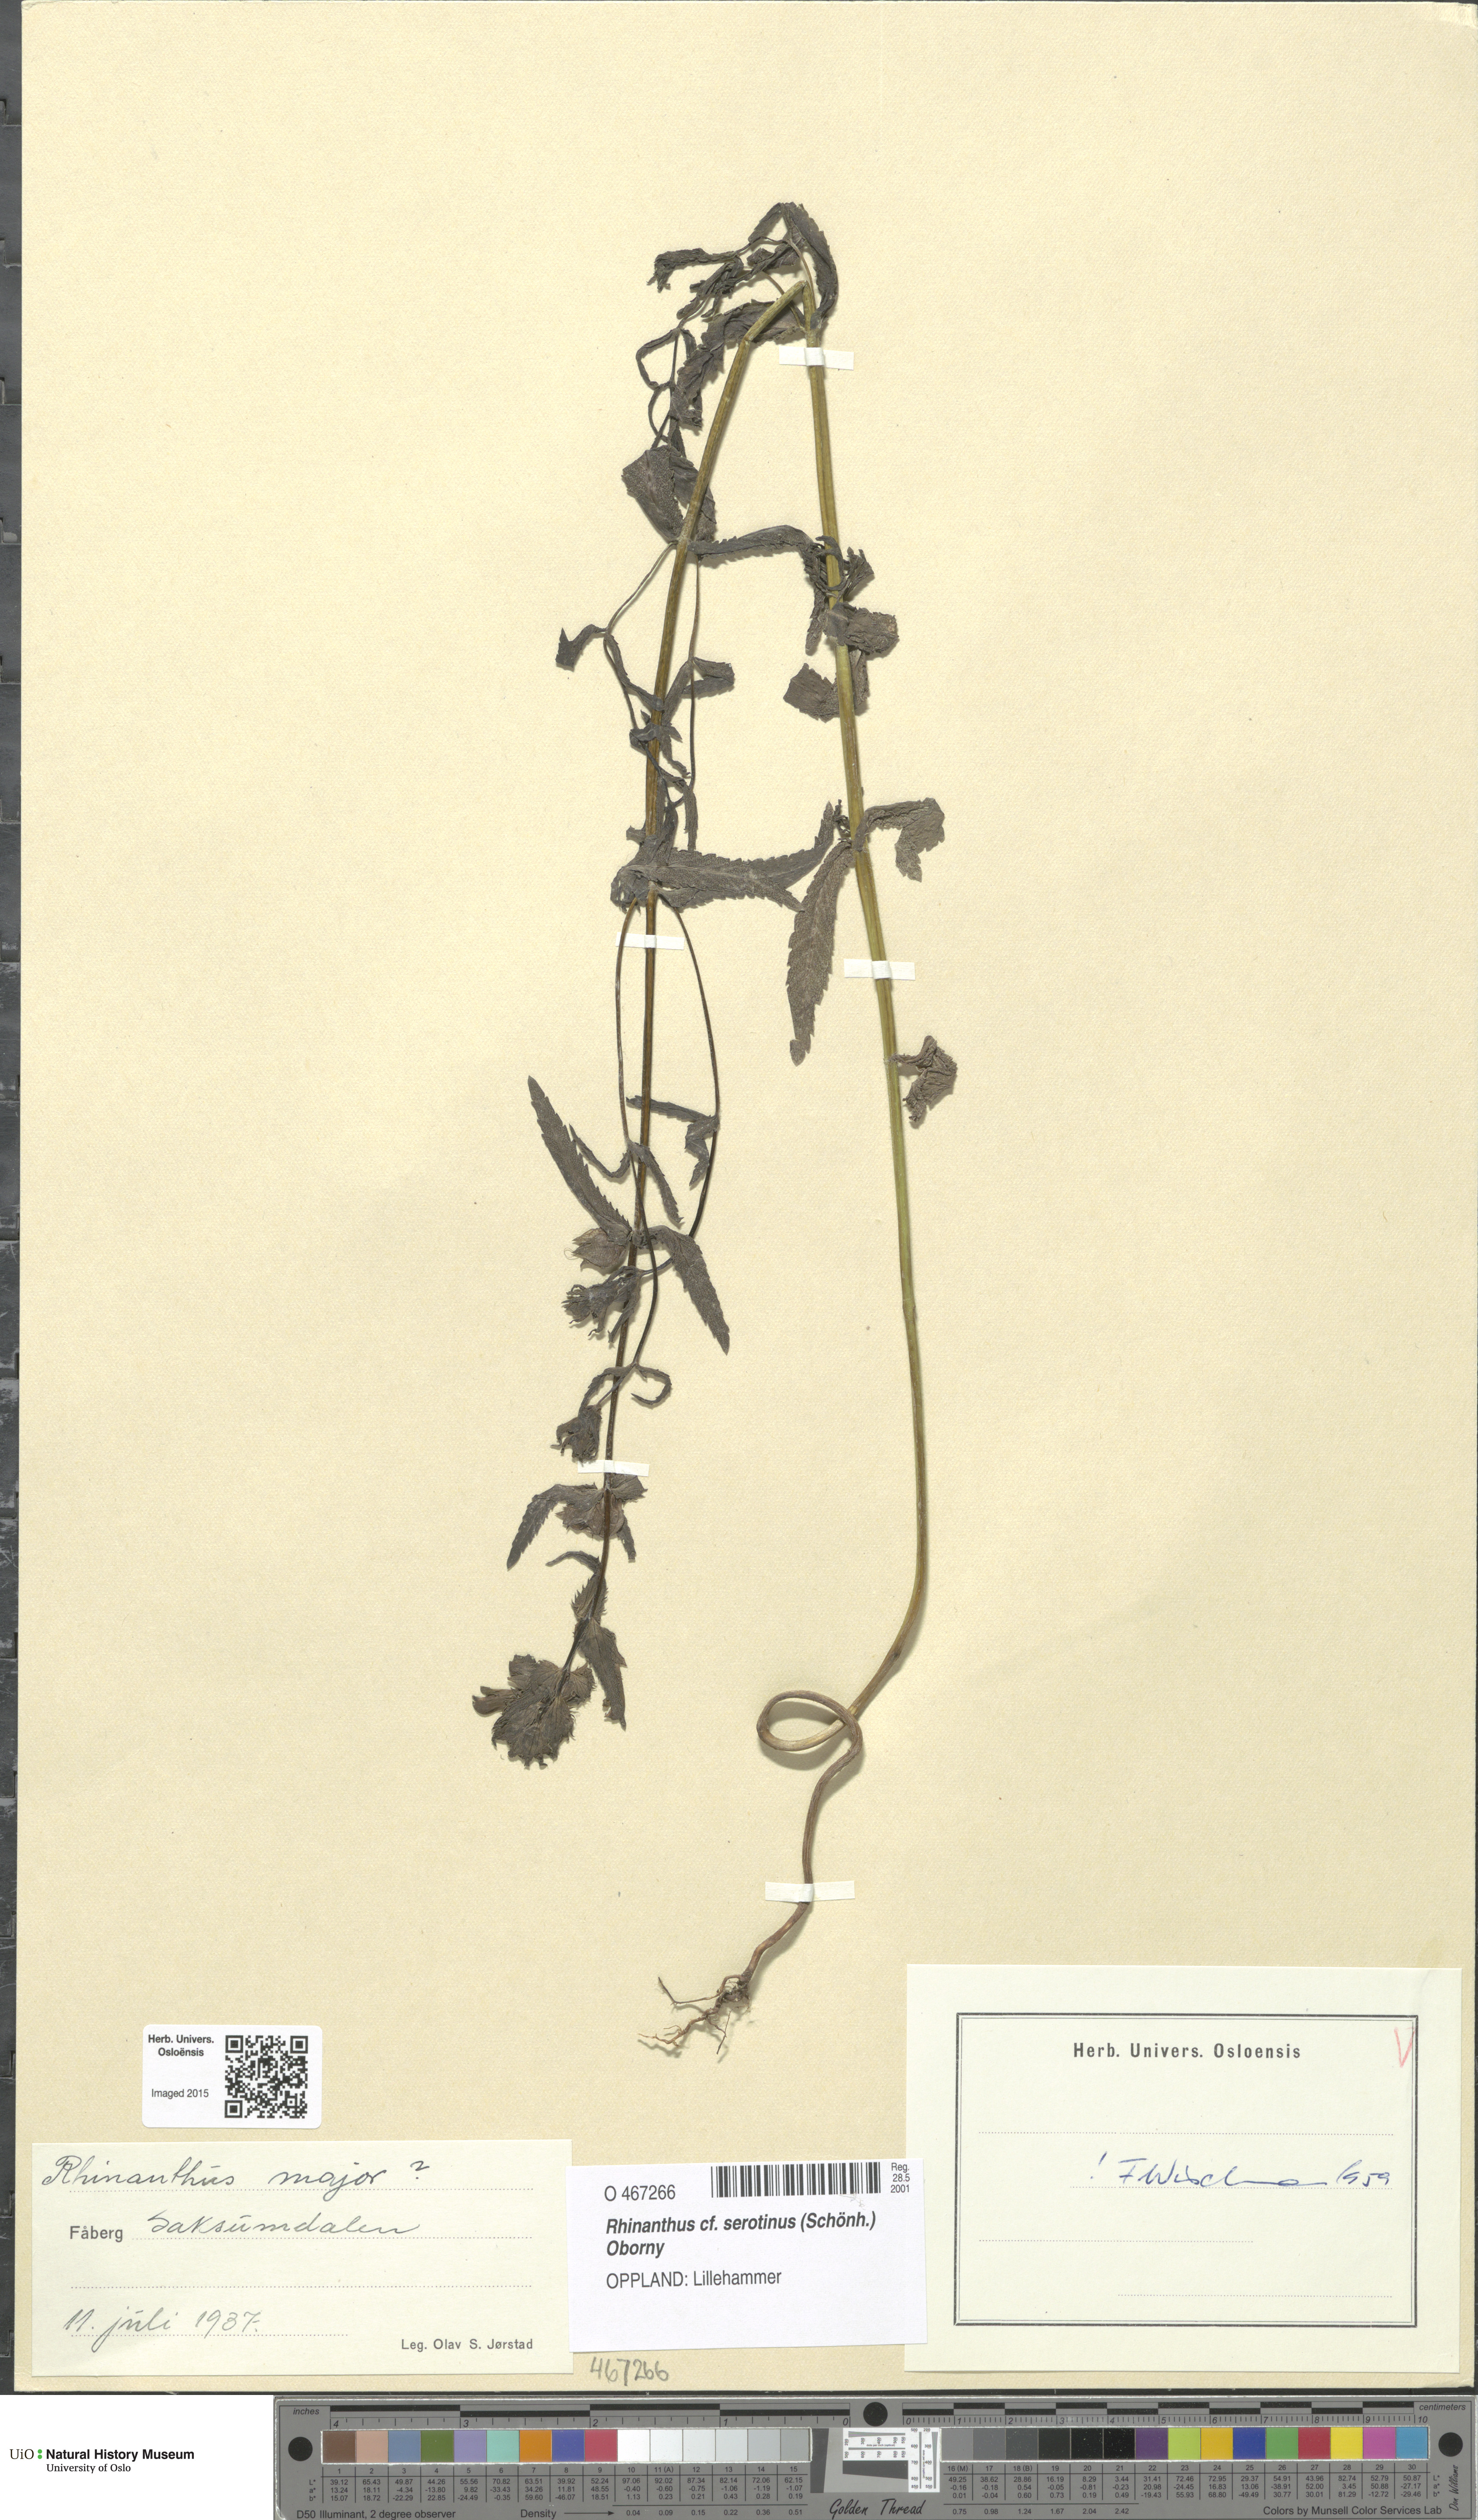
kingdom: Plantae
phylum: Tracheophyta
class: Magnoliopsida
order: Lamiales
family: Orobanchaceae
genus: Rhinanthus
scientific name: Rhinanthus serotinus
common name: Late-flowering yellow rattle
